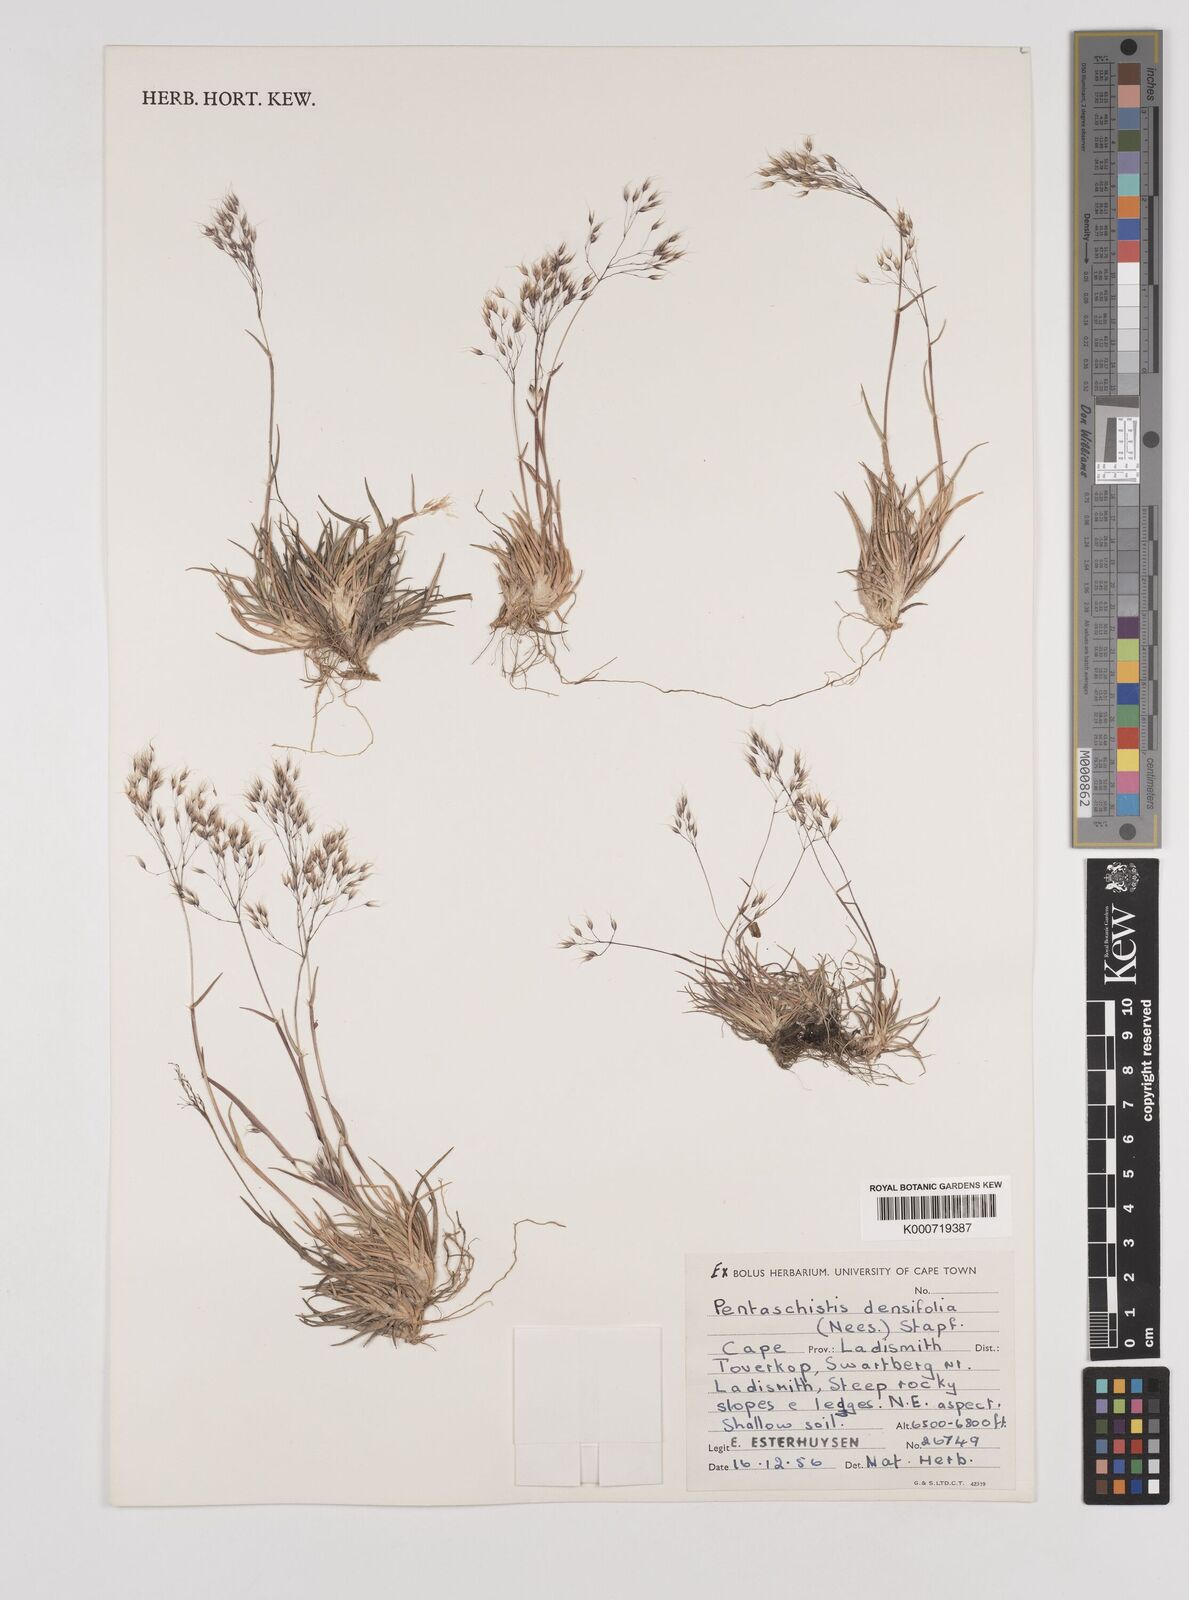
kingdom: Plantae
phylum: Tracheophyta
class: Liliopsida
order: Poales
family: Poaceae
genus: Pentameris
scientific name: Pentameris triseta
